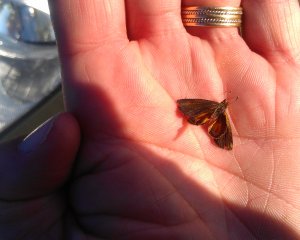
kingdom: Animalia
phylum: Arthropoda
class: Insecta
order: Lepidoptera
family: Hesperiidae
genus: Ancyloxypha
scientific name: Ancyloxypha numitor
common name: Least Skipper
